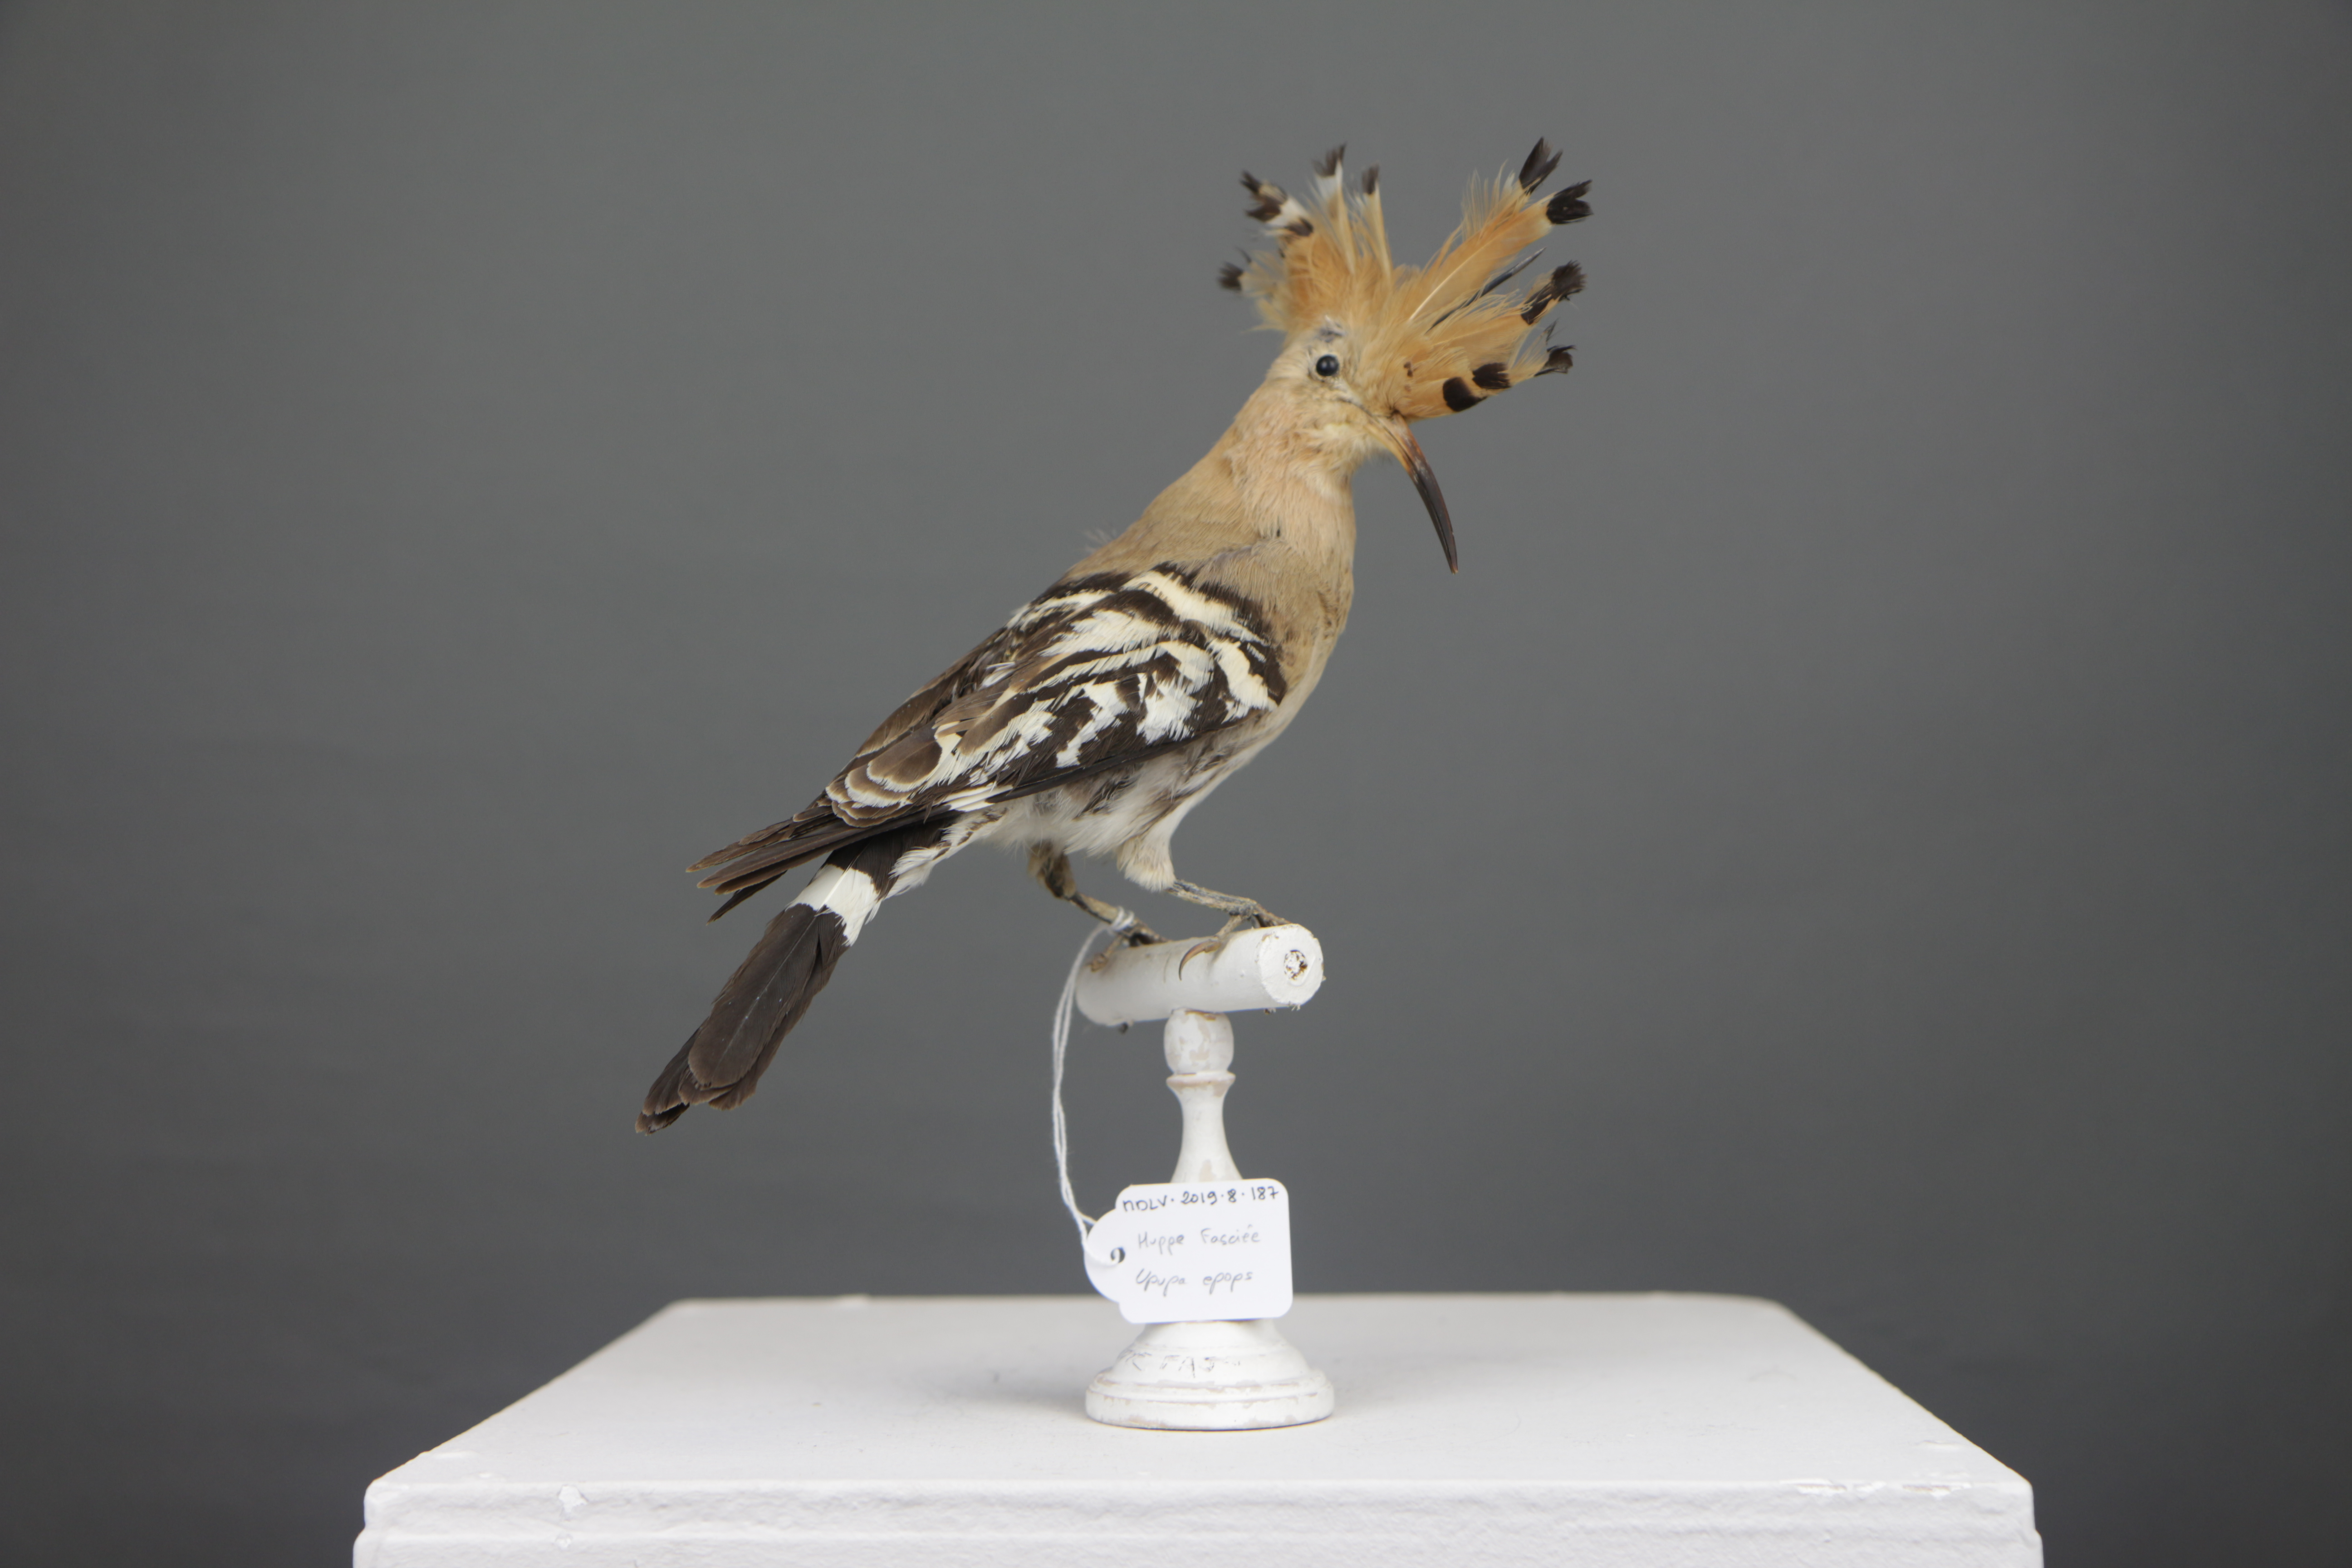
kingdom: Animalia
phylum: Chordata
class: Aves
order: Bucerotiformes
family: Upupidae
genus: Upupa
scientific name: Upupa epops
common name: Eurasian hoopoe
